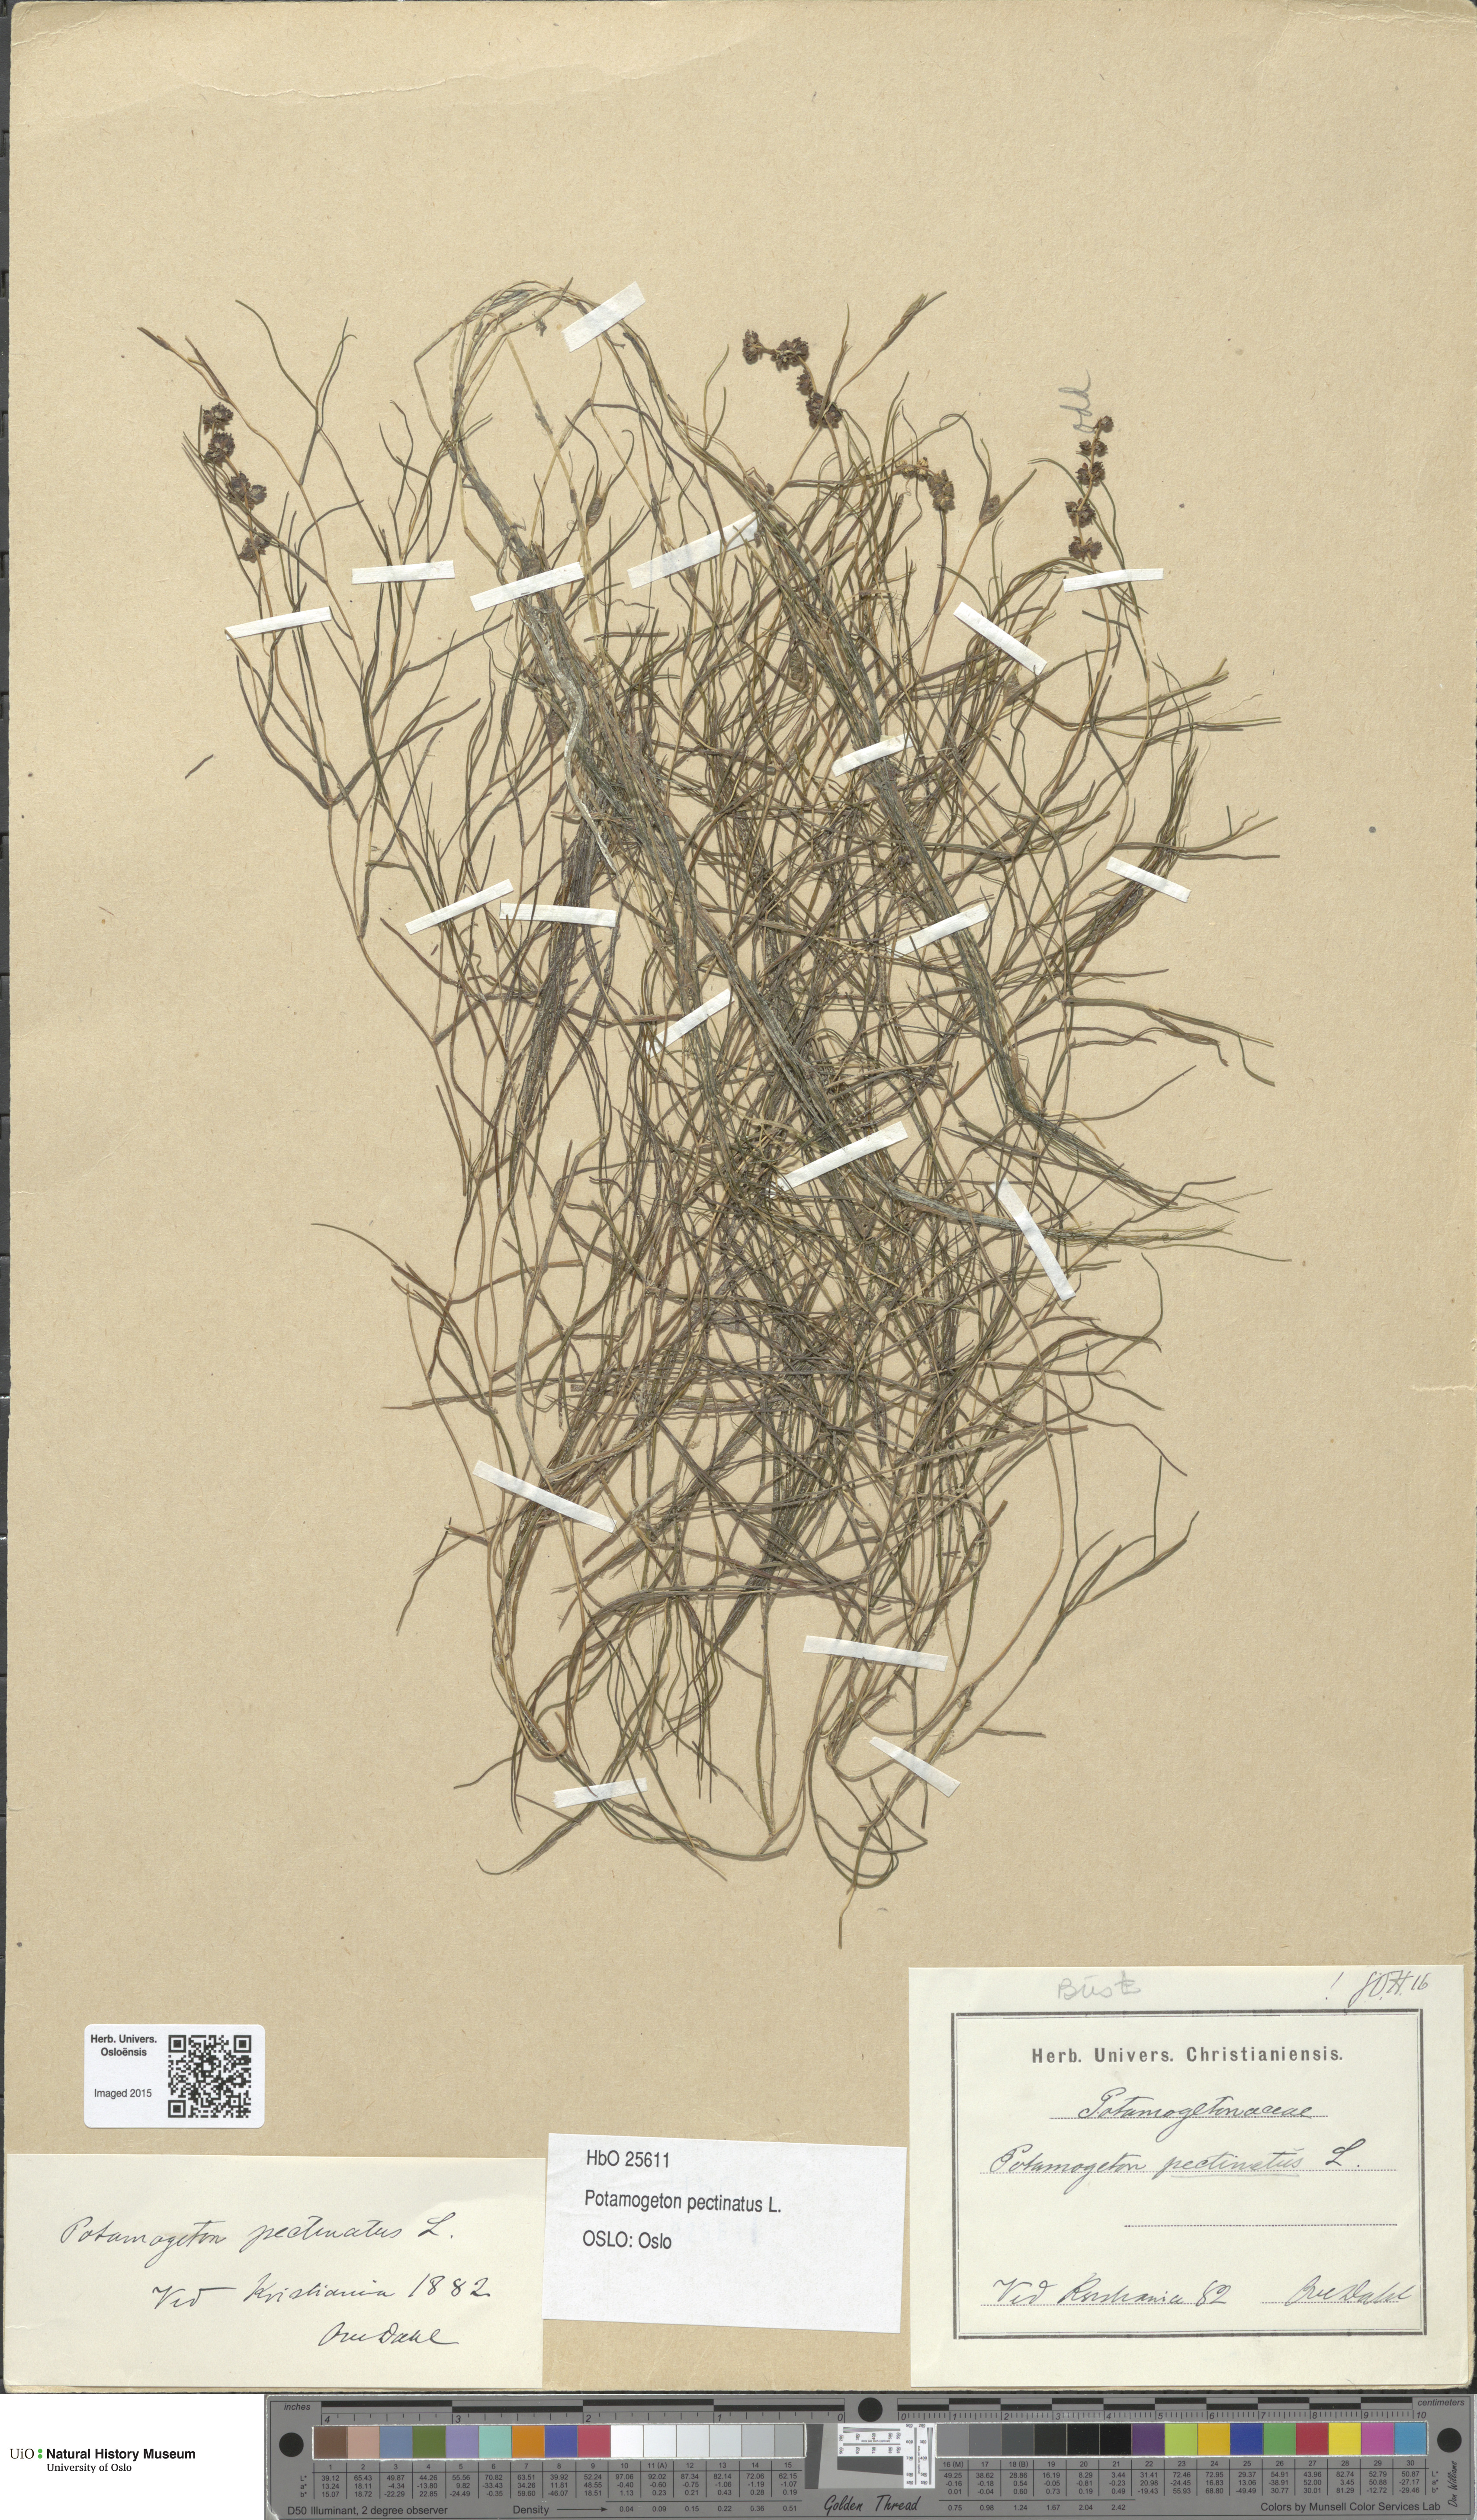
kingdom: Plantae
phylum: Tracheophyta
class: Liliopsida
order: Alismatales
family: Potamogetonaceae
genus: Stuckenia
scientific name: Stuckenia pectinata
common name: Sago pondweed
